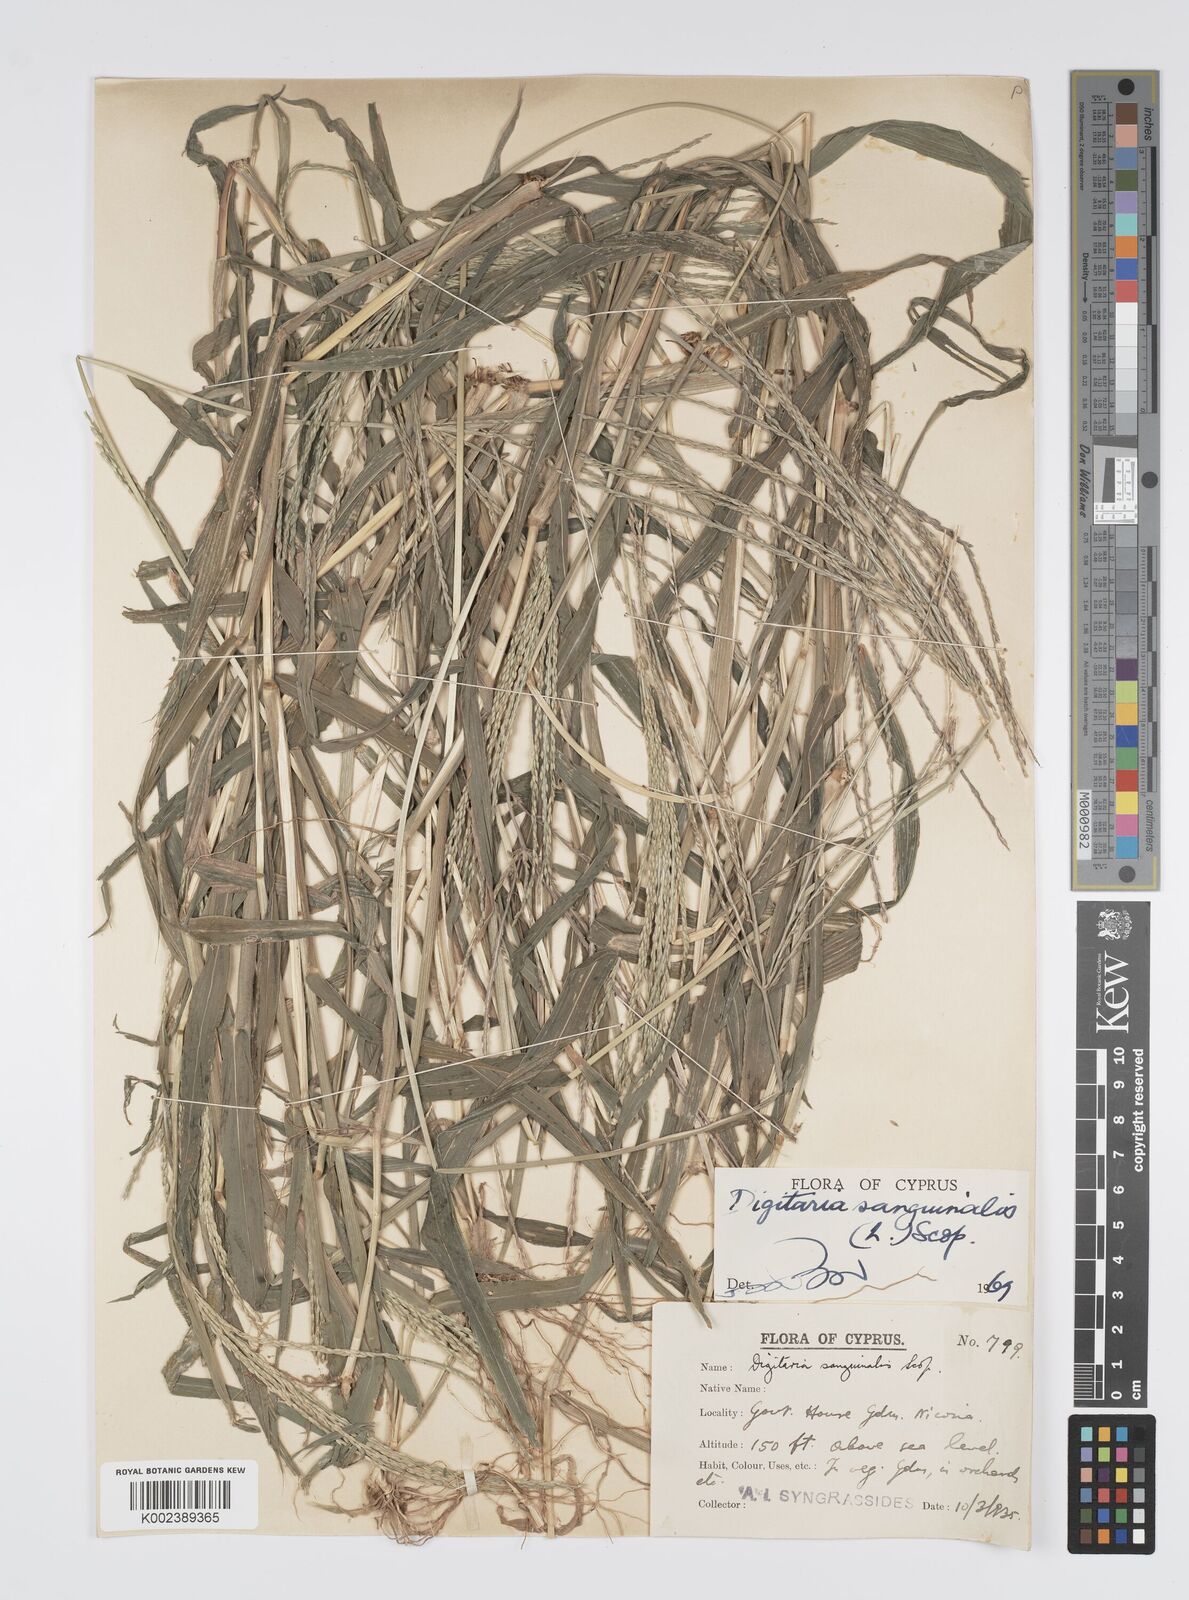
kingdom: Plantae
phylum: Tracheophyta
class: Liliopsida
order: Poales
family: Poaceae
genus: Digitaria
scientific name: Digitaria sanguinalis
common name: Hairy crabgrass
